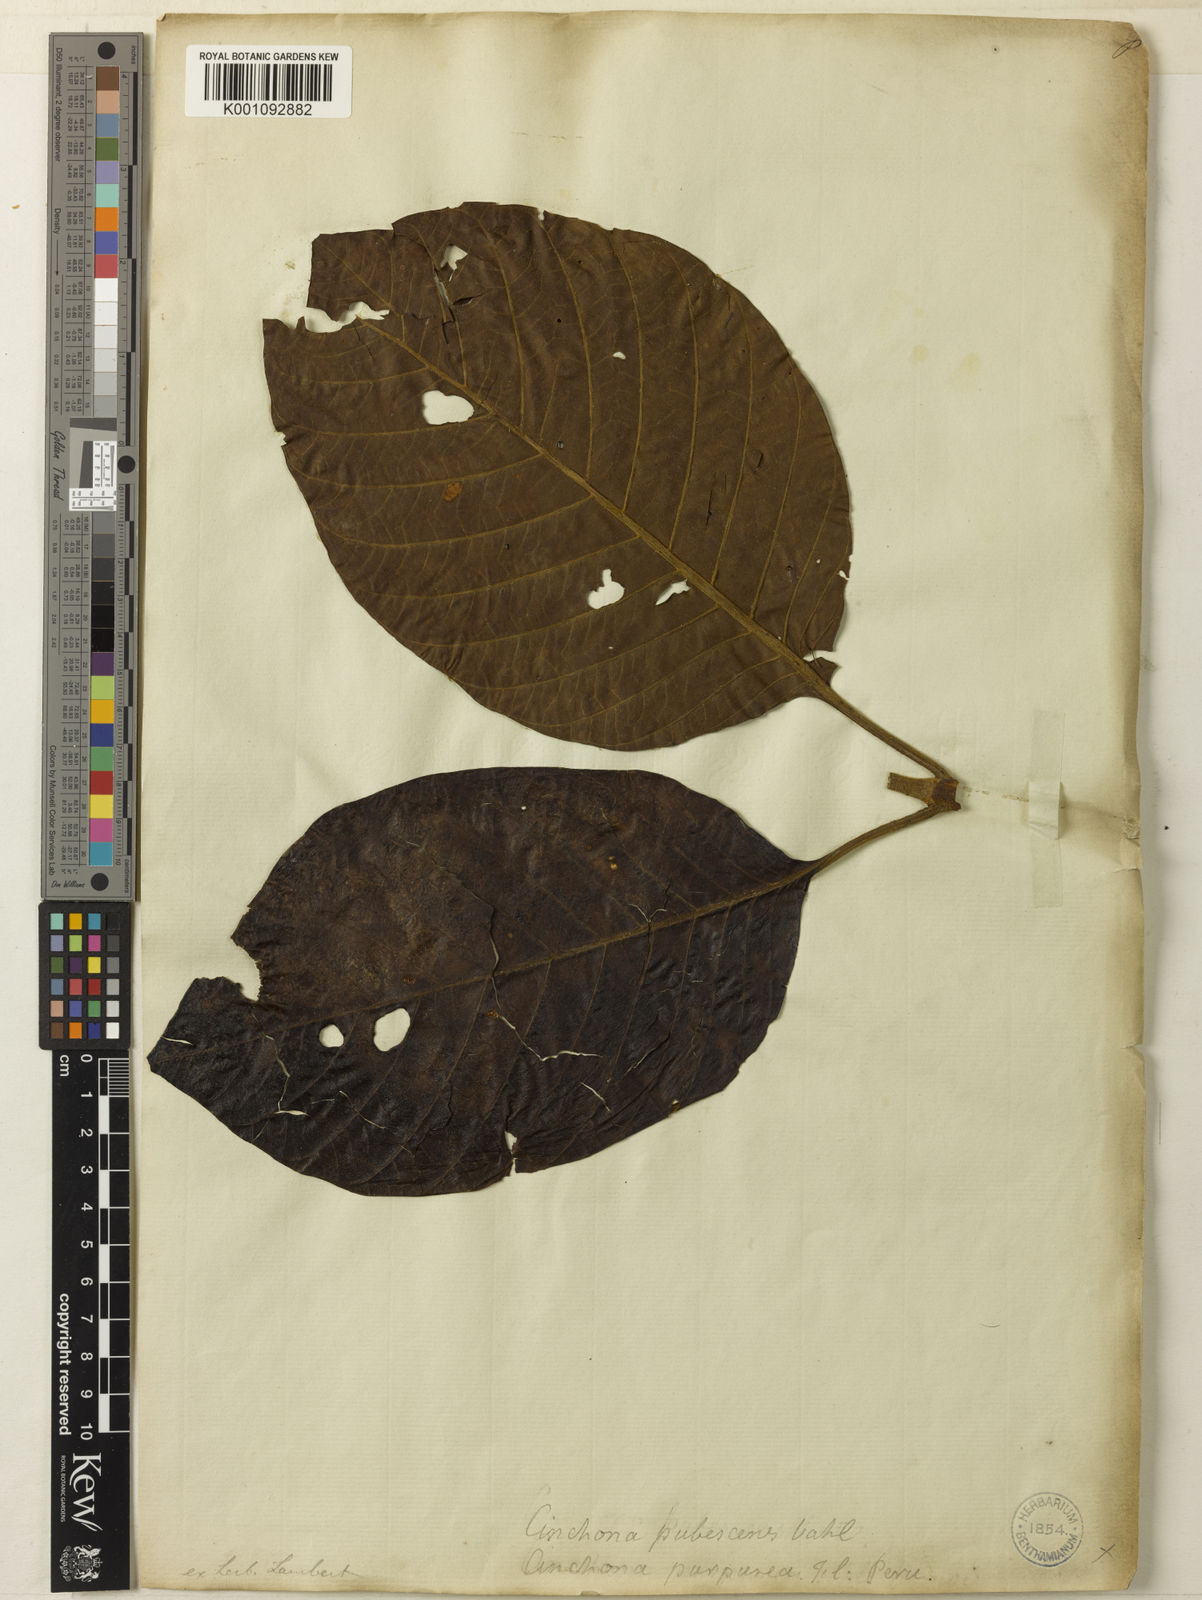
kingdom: Plantae
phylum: Tracheophyta
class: Magnoliopsida
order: Gentianales
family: Rubiaceae
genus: Cinchona
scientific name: Cinchona pubescens
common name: Quinine
